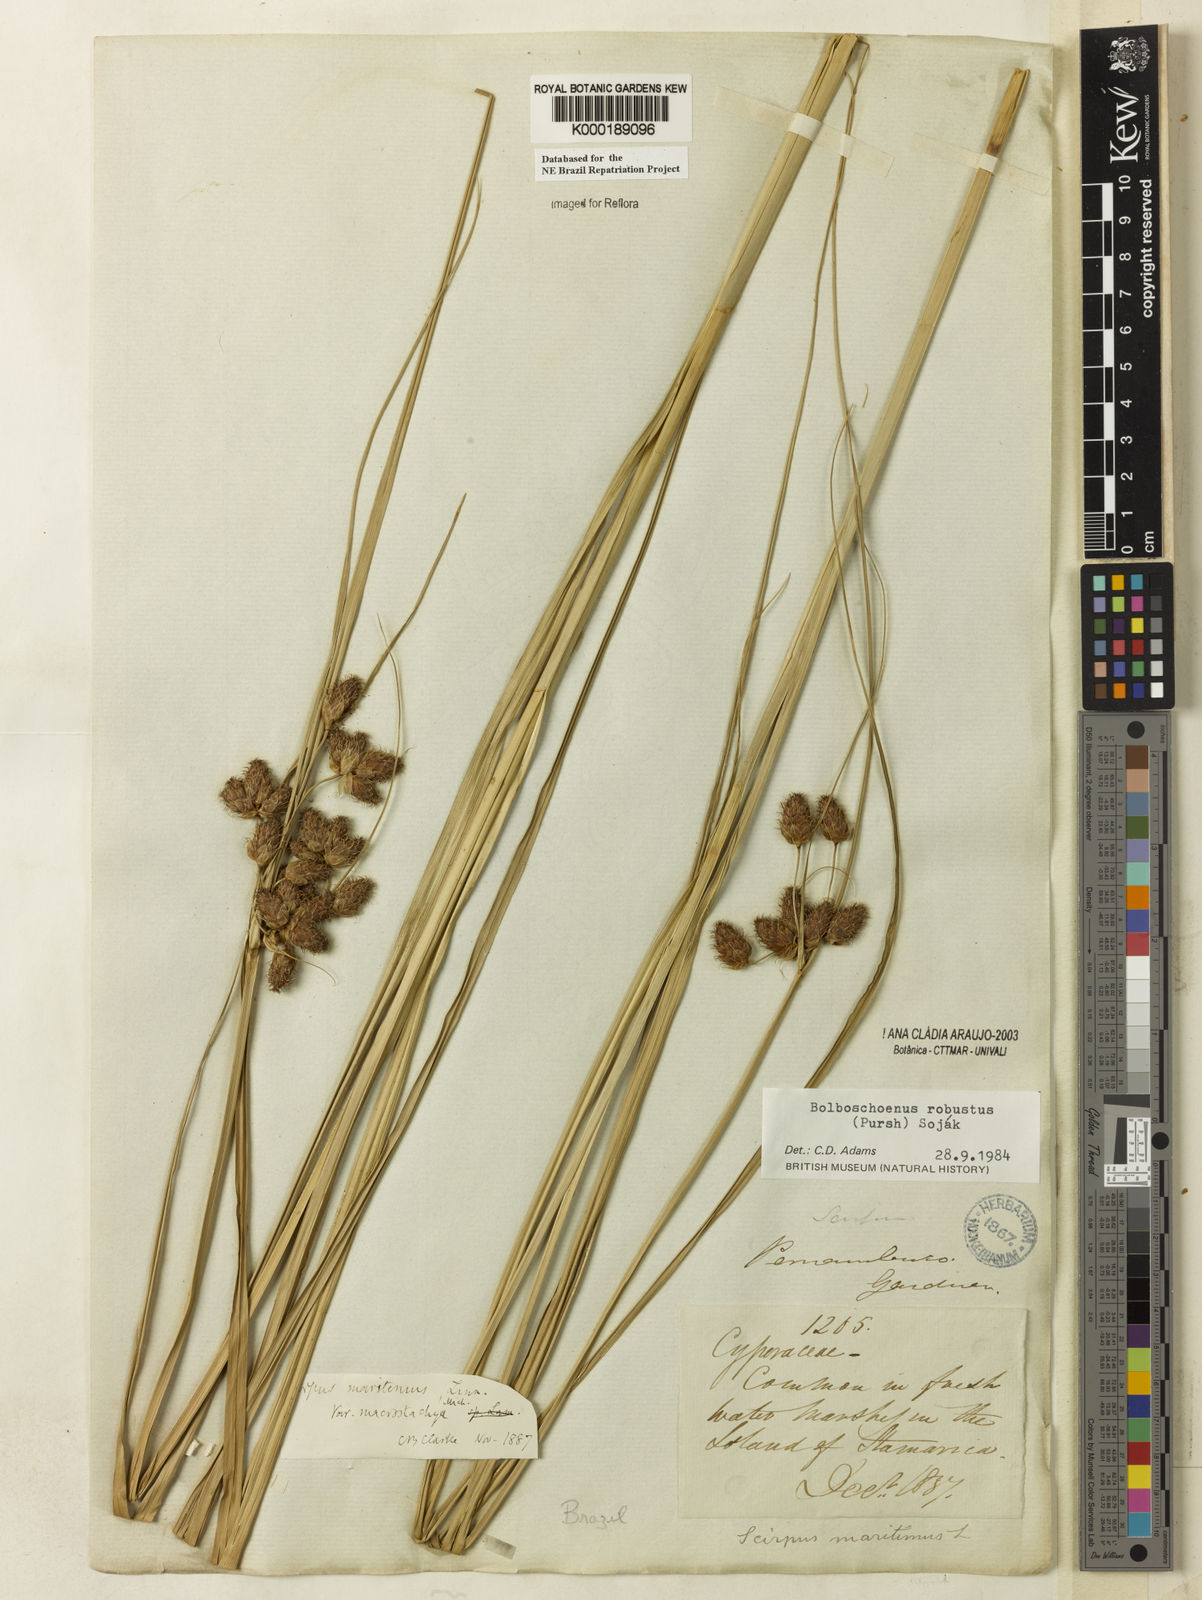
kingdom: Plantae
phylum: Tracheophyta
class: Liliopsida
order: Poales
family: Cyperaceae
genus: Bolboschoenus
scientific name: Bolboschoenus
